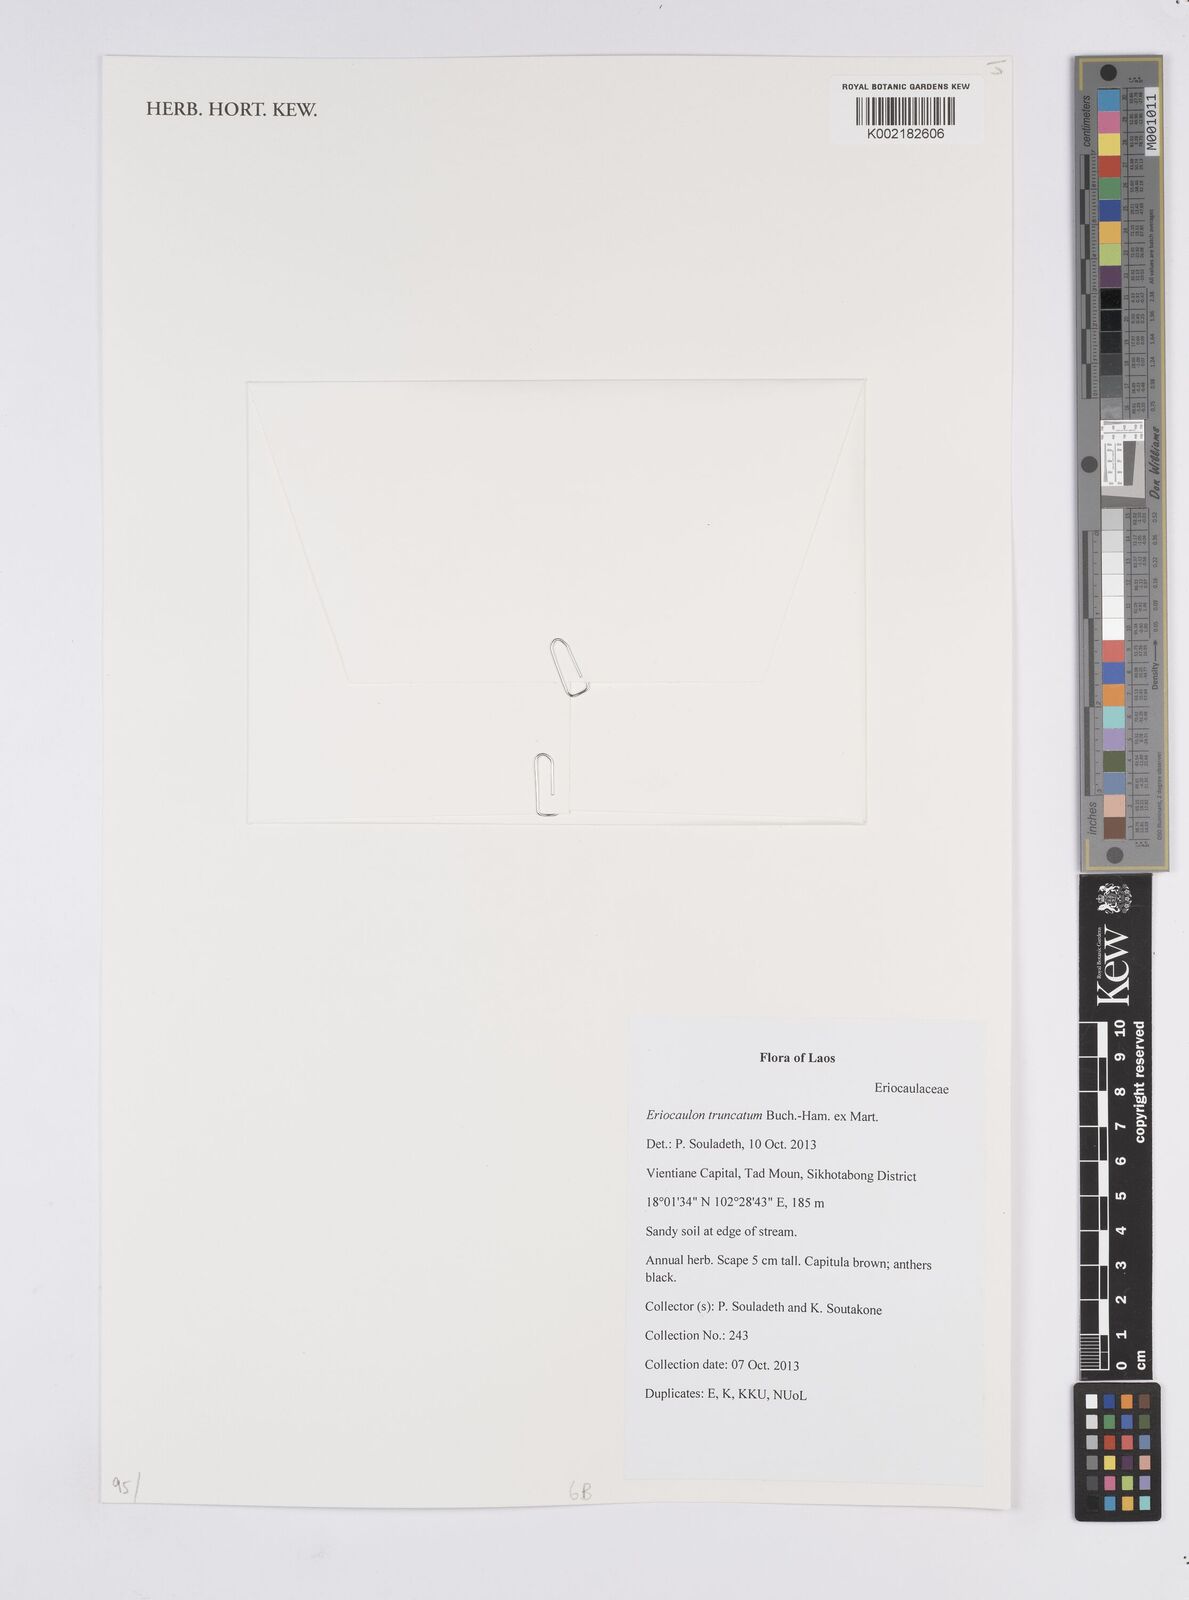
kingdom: Plantae
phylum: Tracheophyta
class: Liliopsida
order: Poales
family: Eriocaulaceae
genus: Eriocaulon
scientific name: Eriocaulon truncatum
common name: Short pipe-wort
